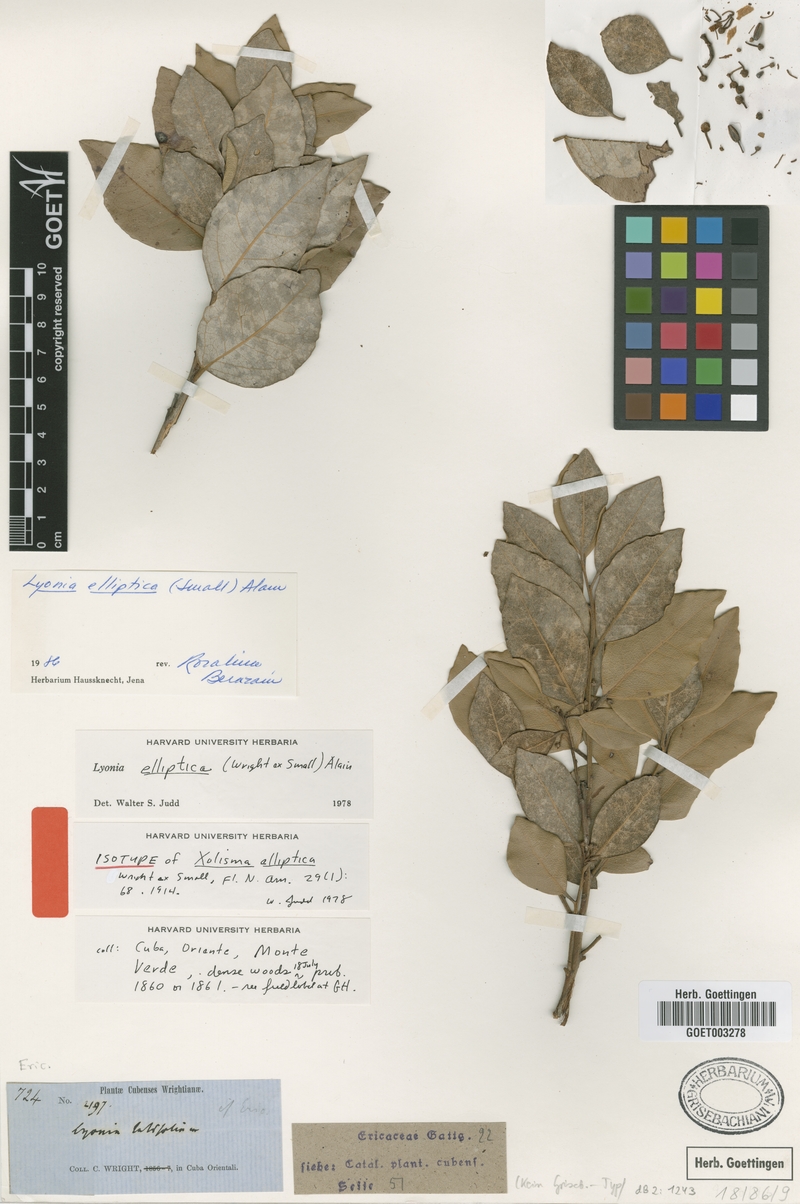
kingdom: Plantae
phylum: Tracheophyta
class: Magnoliopsida
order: Ericales
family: Ericaceae
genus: Lyonia
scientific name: Lyonia elliptica
